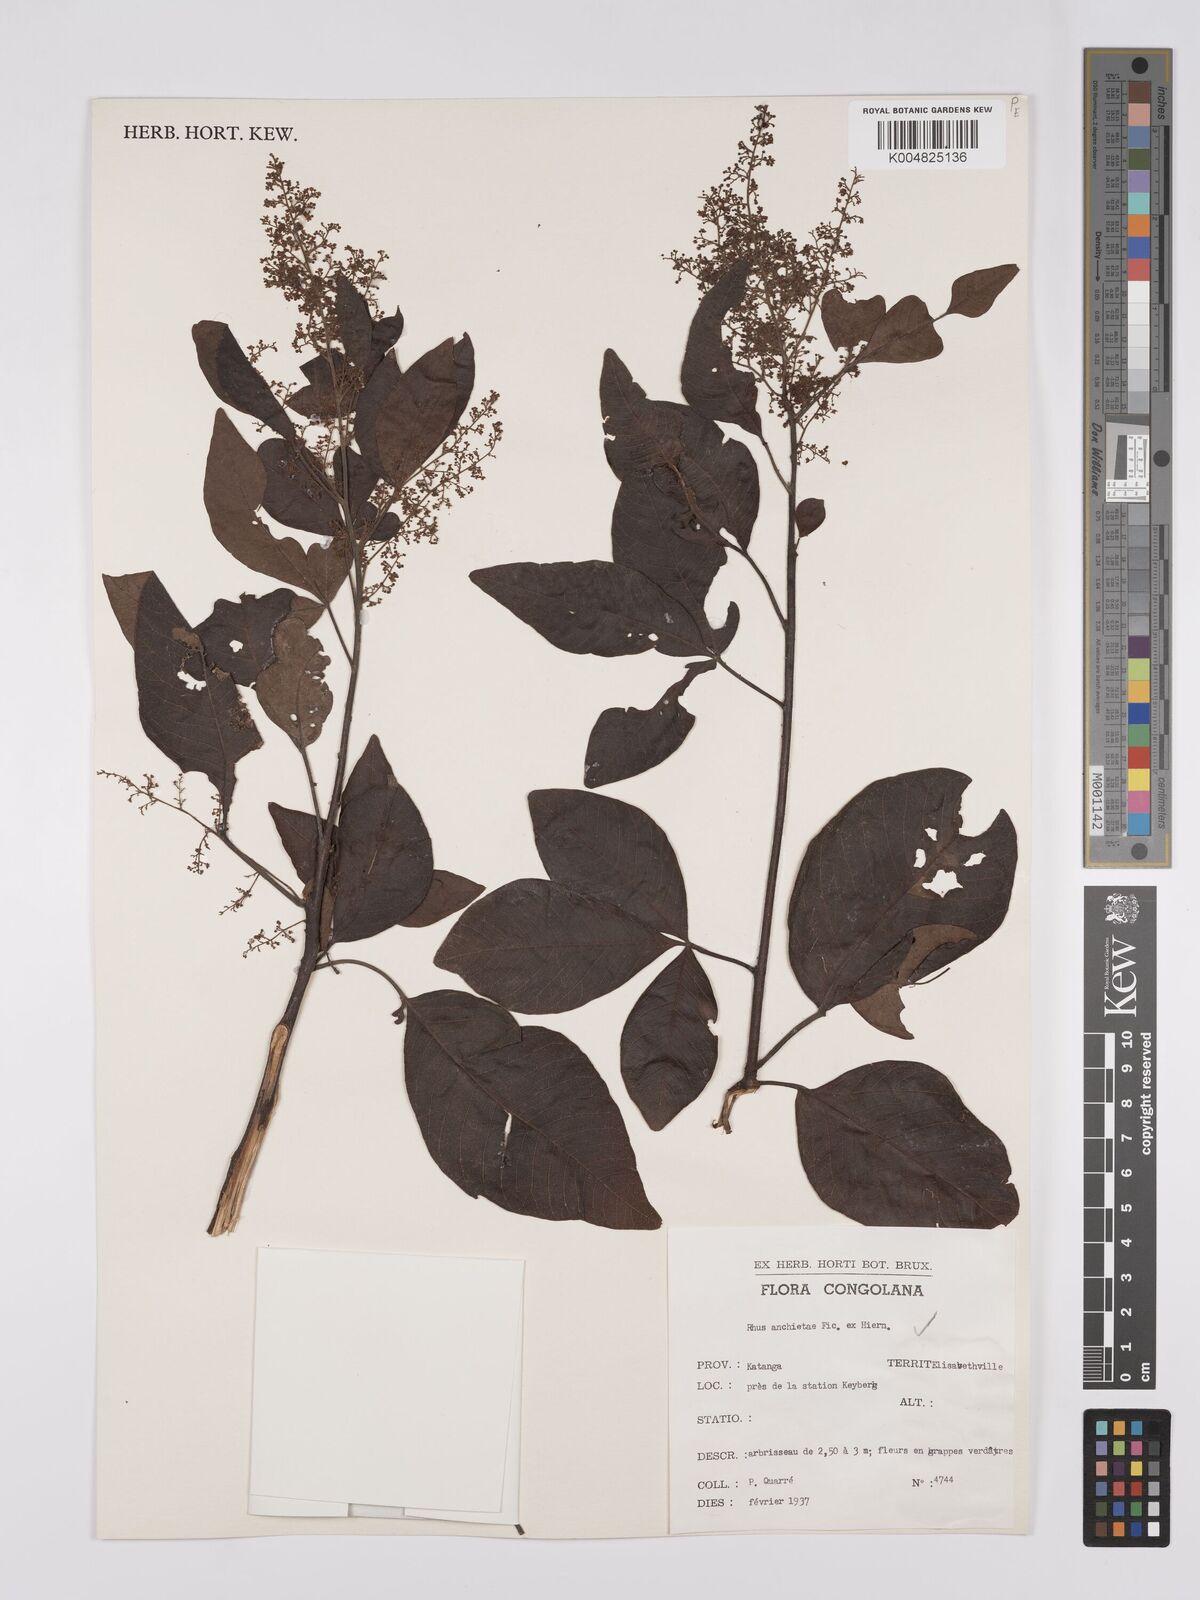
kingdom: Plantae
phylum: Tracheophyta
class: Magnoliopsida
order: Sapindales
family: Anacardiaceae
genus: Searsia
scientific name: Searsia anchietae
